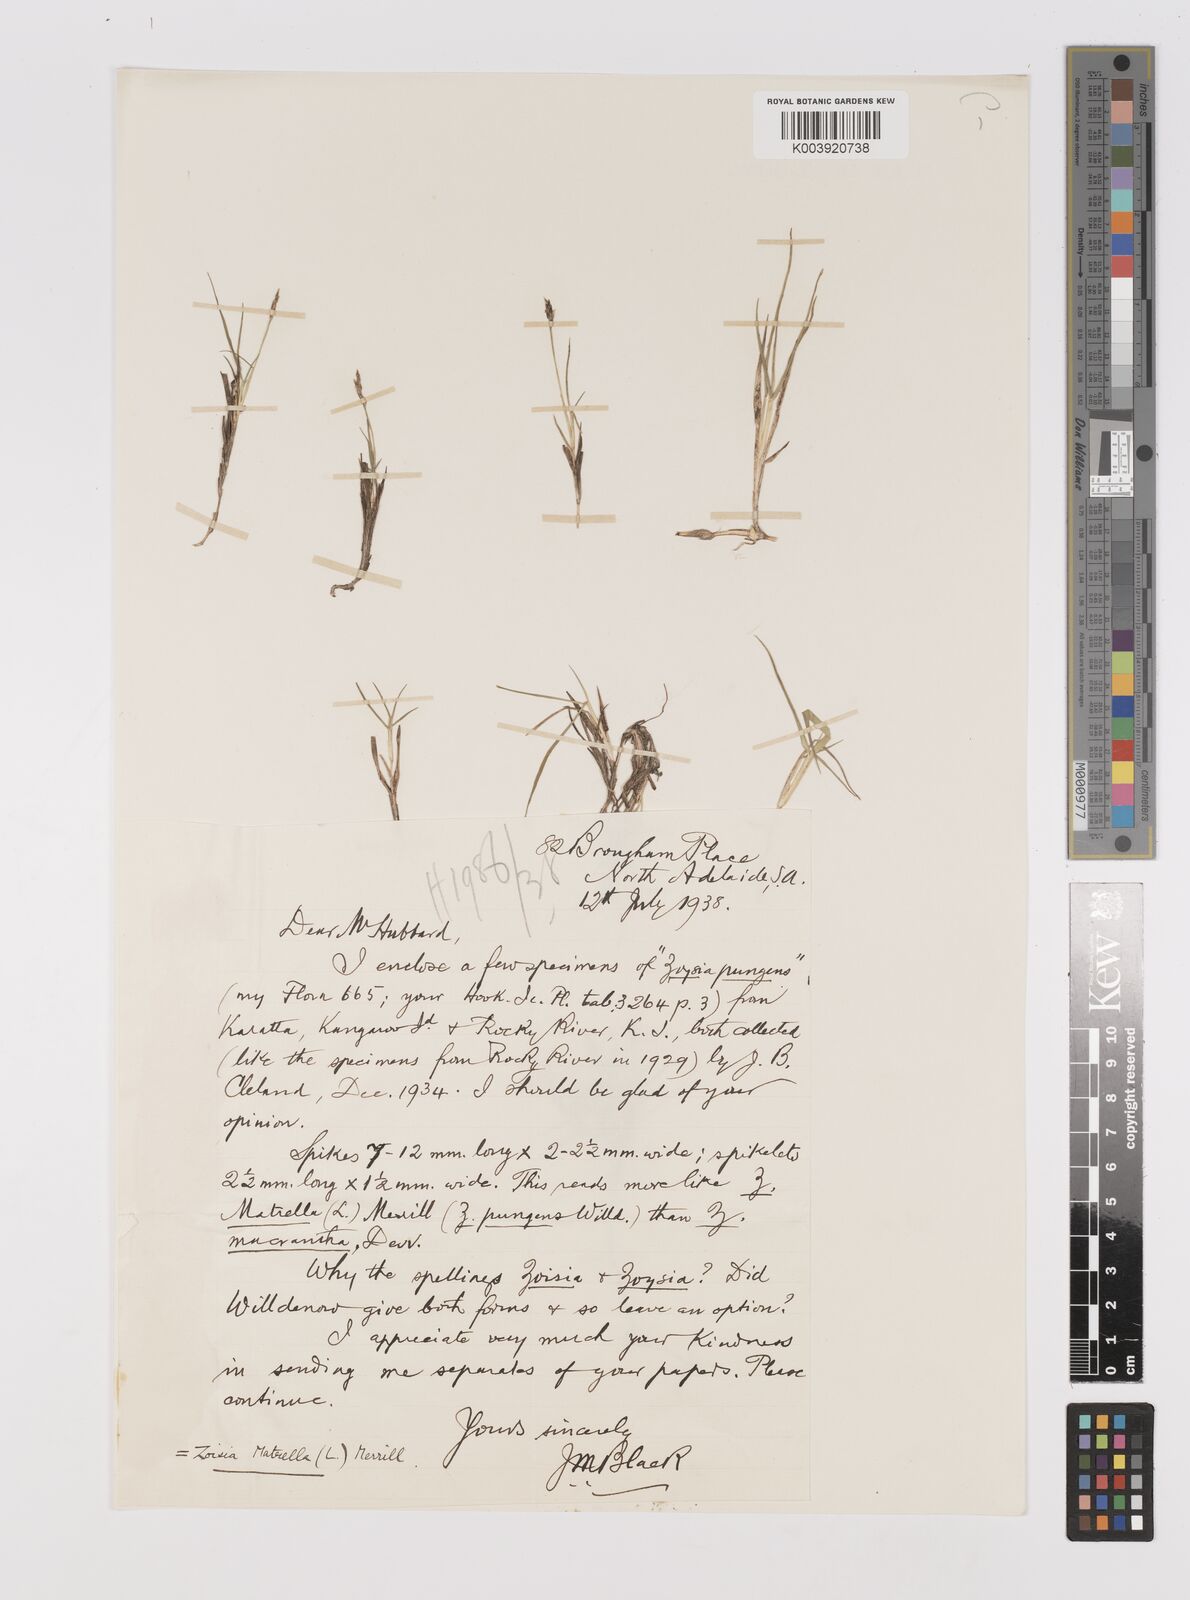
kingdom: Plantae
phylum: Tracheophyta
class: Liliopsida
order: Poales
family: Poaceae
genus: Zoysia
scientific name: Zoysia macrantha
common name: Korean lawn grass
